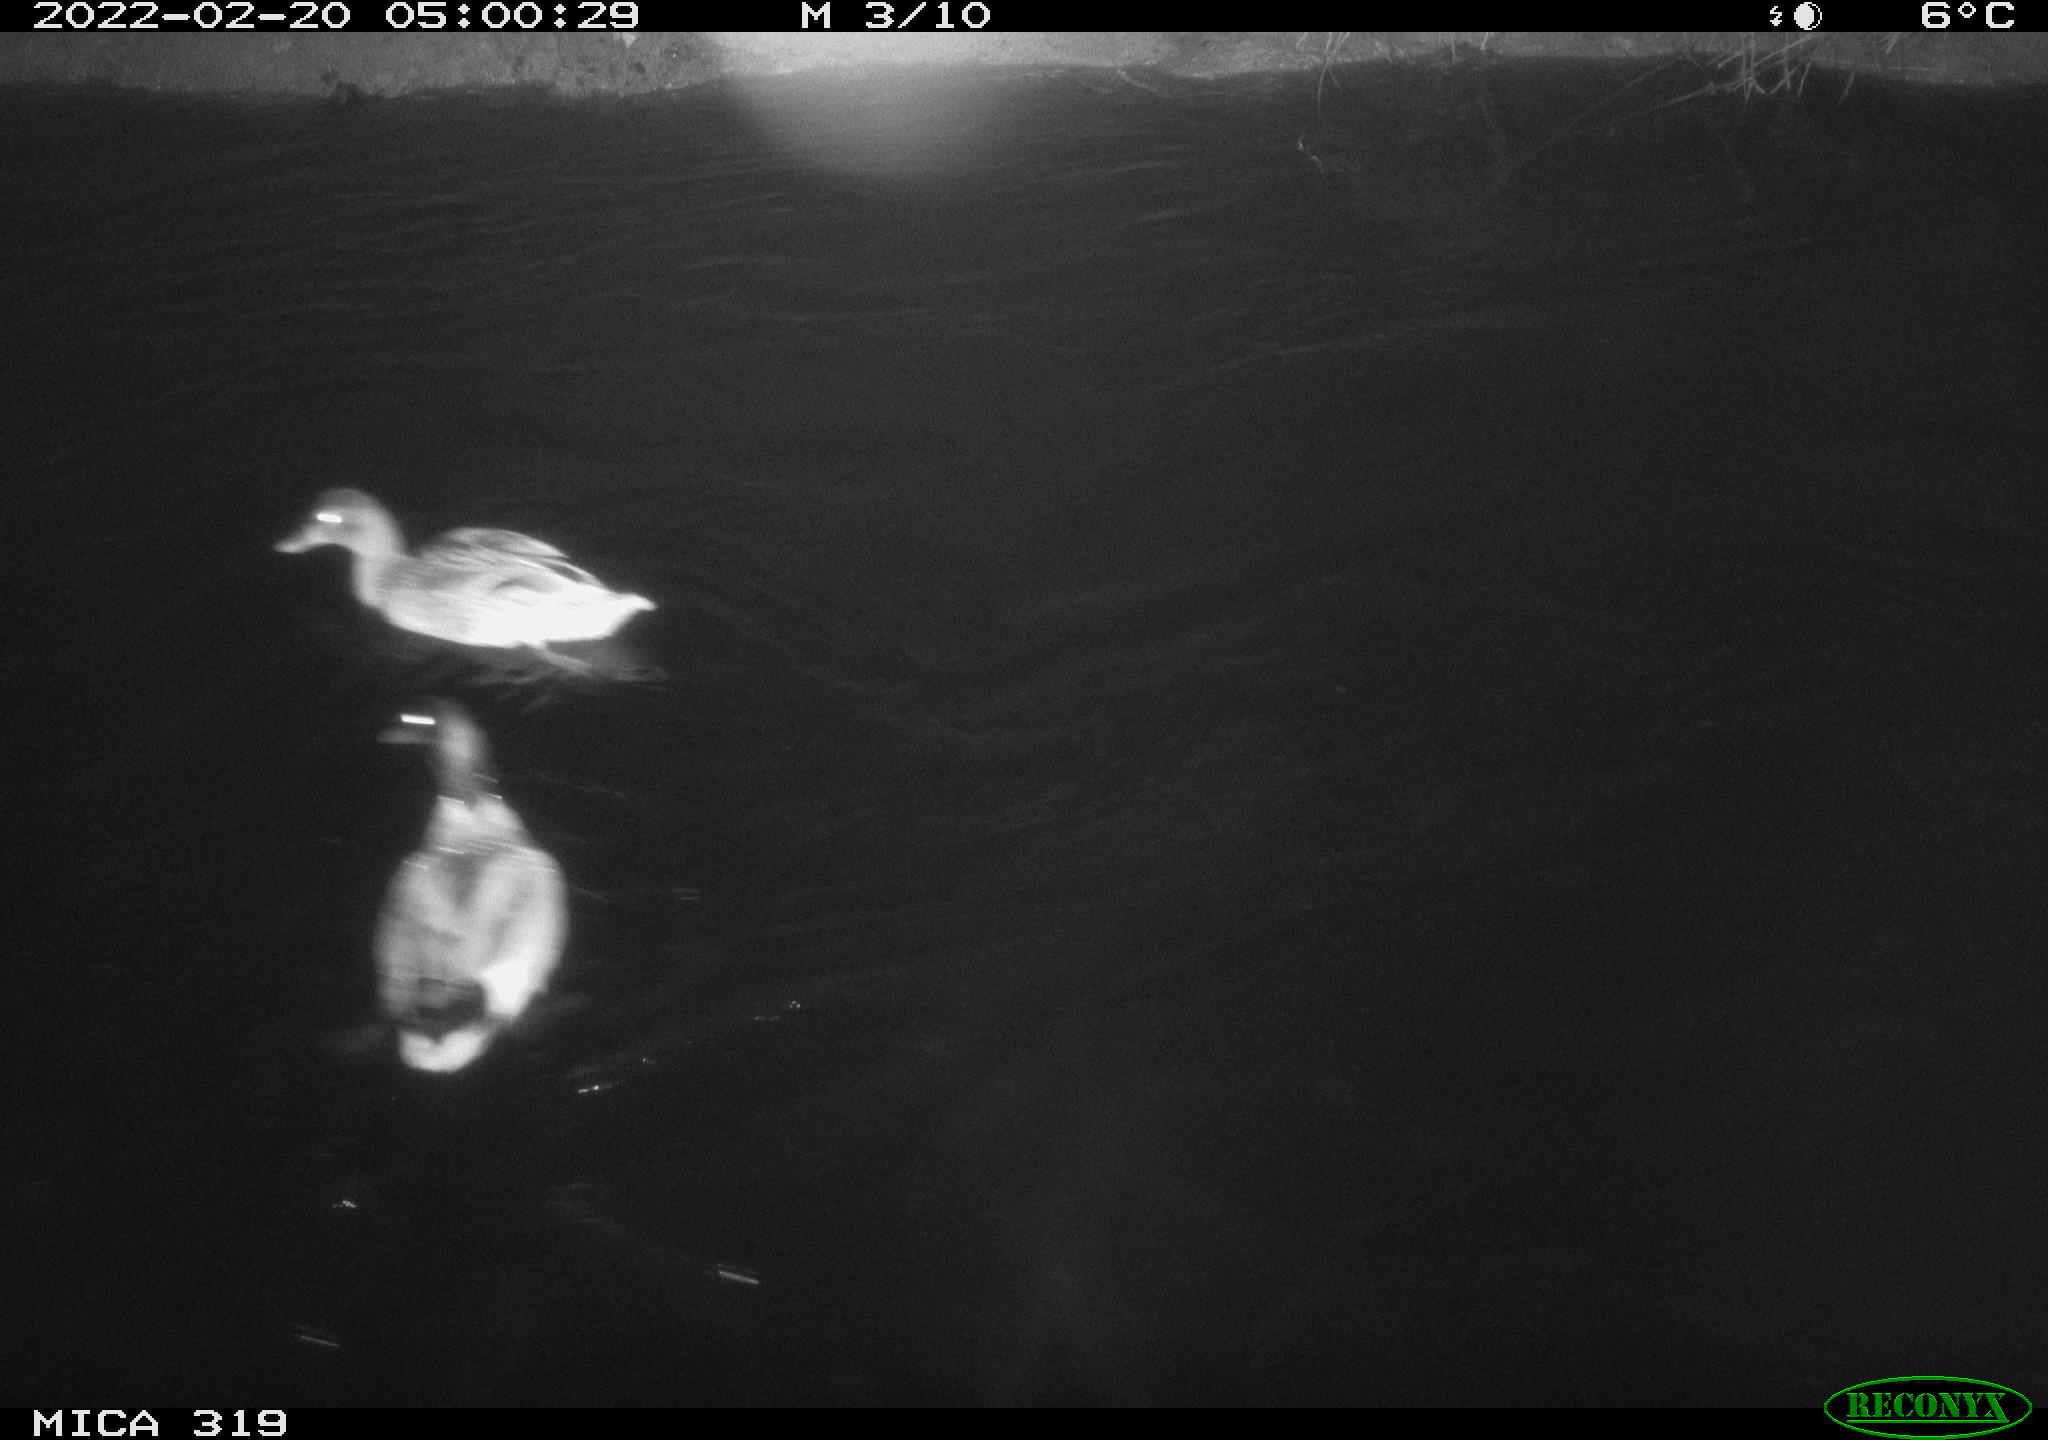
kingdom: Animalia
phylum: Chordata
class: Aves
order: Anseriformes
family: Anatidae
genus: Anas
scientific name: Anas platyrhynchos
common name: Mallard
